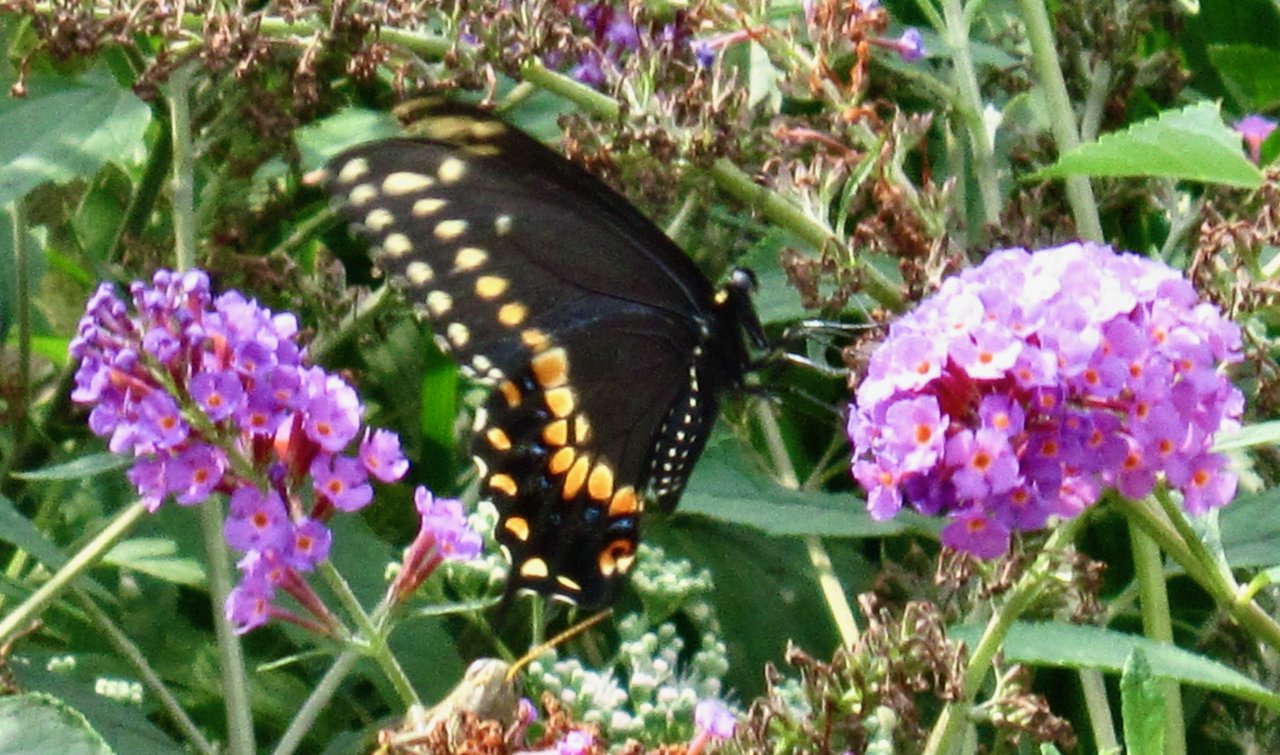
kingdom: Animalia
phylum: Arthropoda
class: Insecta
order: Lepidoptera
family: Papilionidae
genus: Papilio
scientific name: Papilio polyxenes
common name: Black Swallowtail
